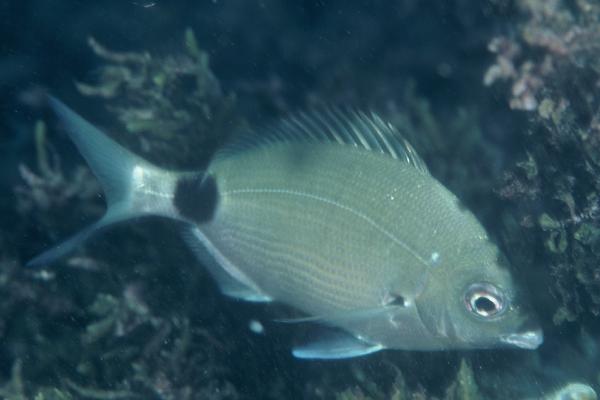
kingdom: Animalia
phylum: Chordata
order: Perciformes
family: Sparidae
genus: Diplodus
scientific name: Diplodus capensis
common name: Blacktail
